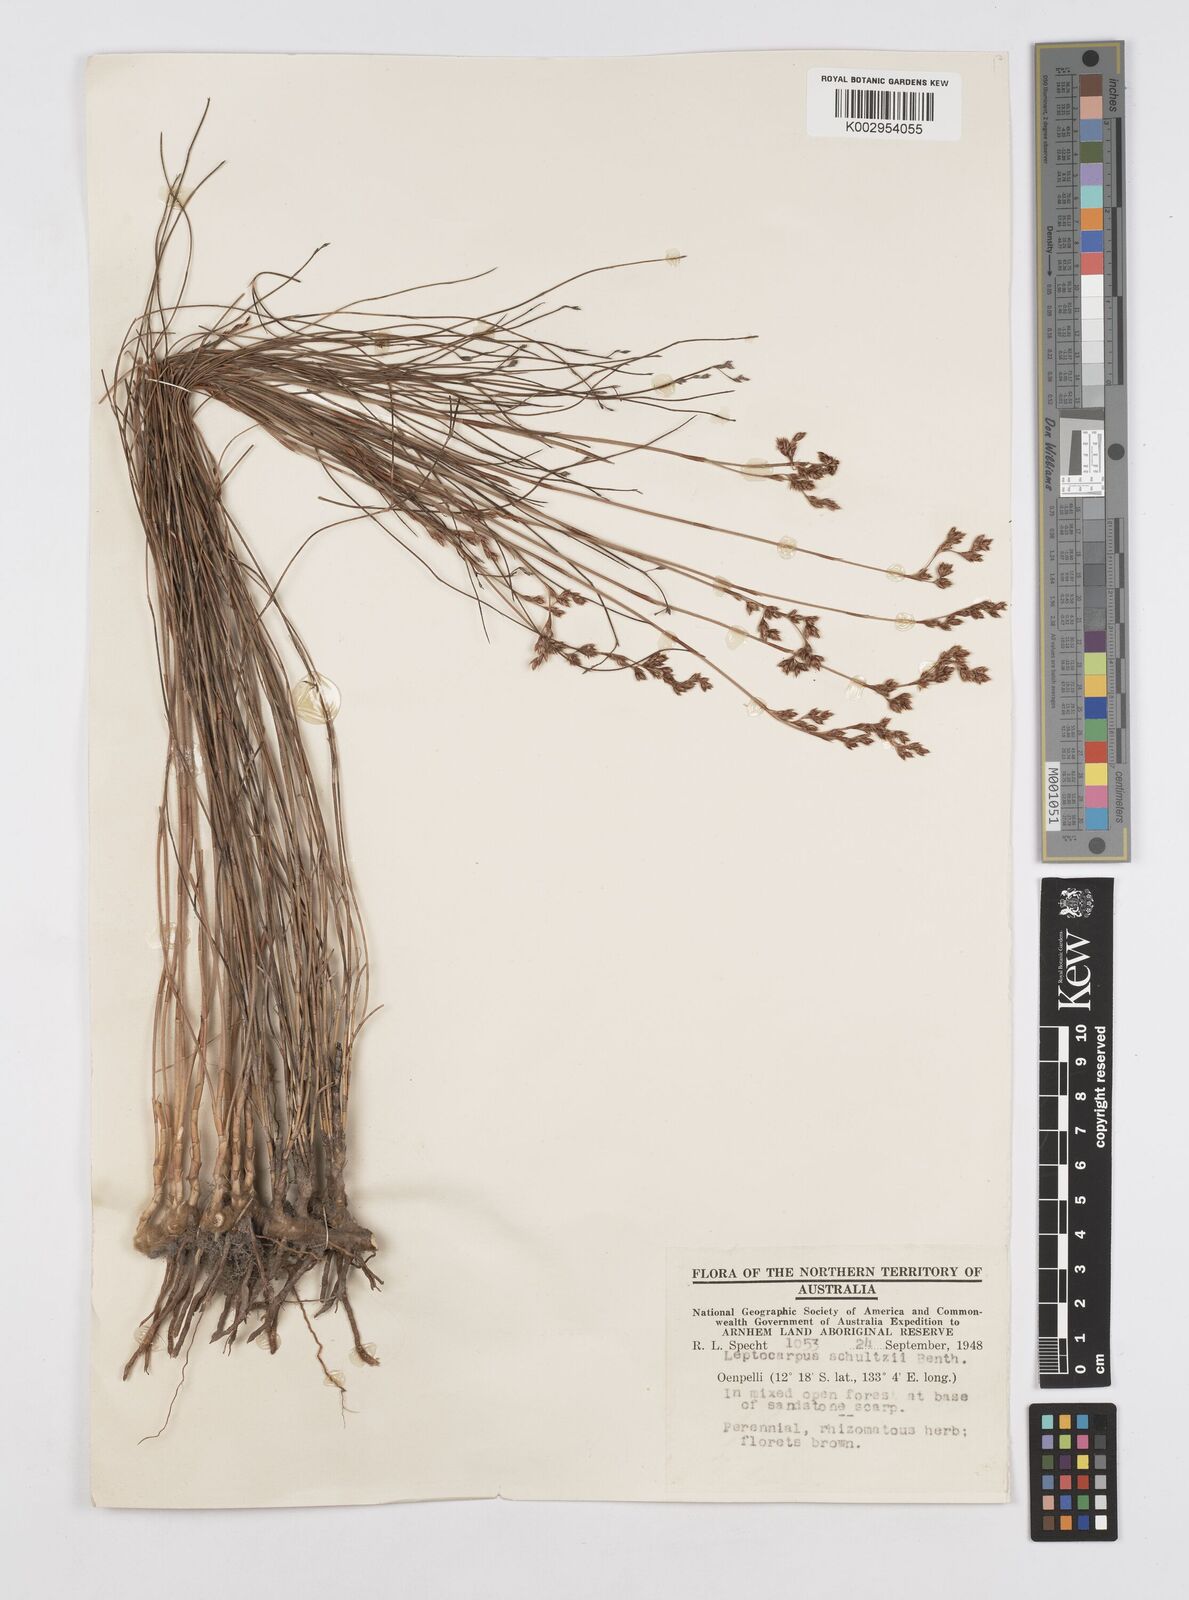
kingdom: Plantae
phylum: Tracheophyta
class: Liliopsida
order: Poales
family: Restionaceae
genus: Dapsilanthus
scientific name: Dapsilanthus spathaceus
